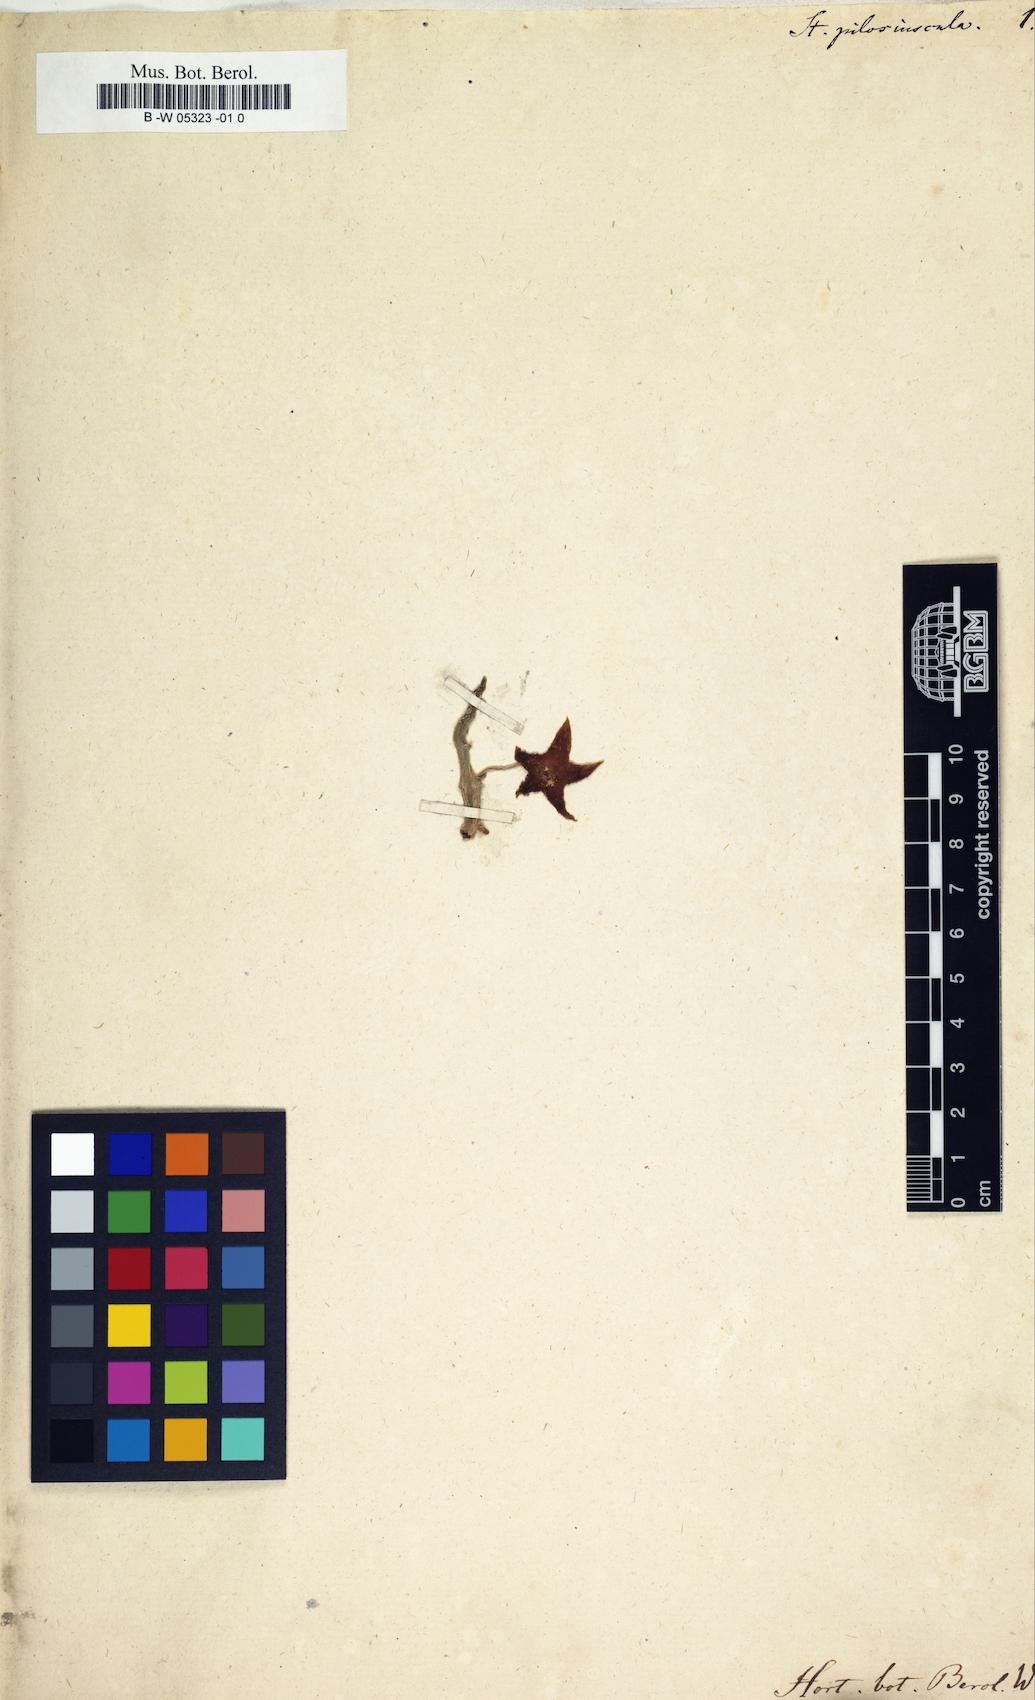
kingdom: Plantae
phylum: Tracheophyta
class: Magnoliopsida
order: Gentianales
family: Apocynaceae
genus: Stapelia
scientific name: Stapelia
